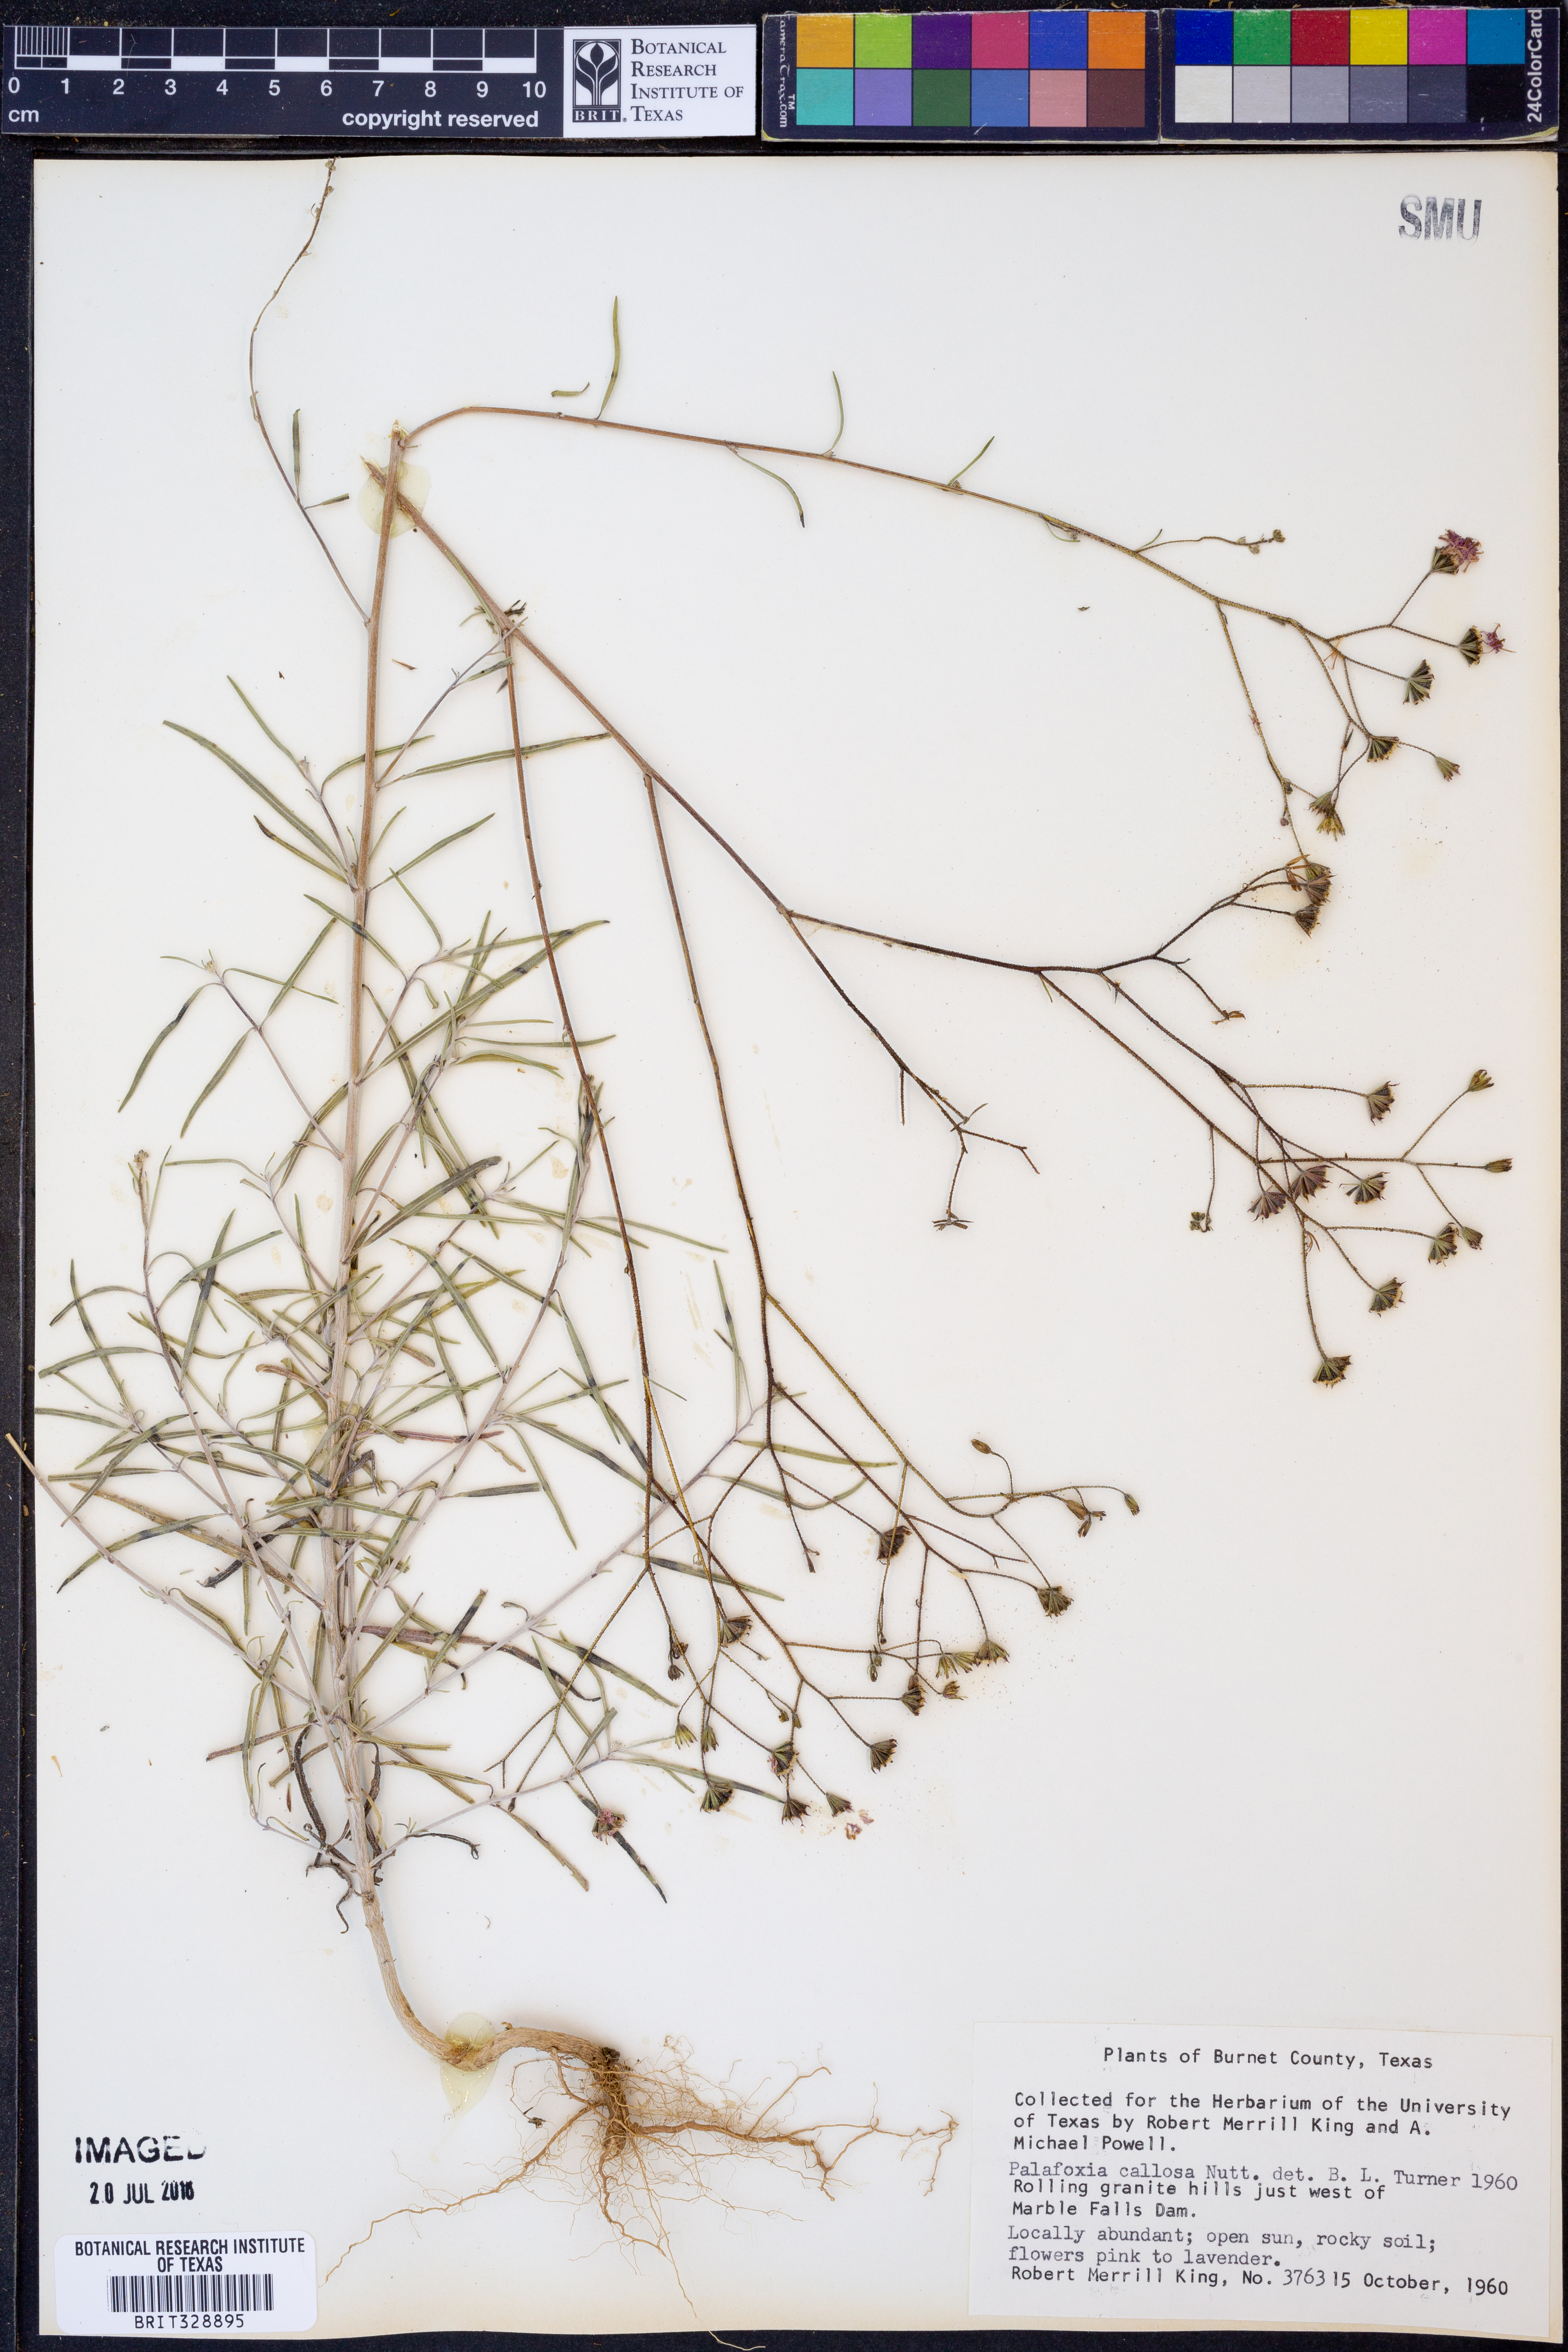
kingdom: Plantae
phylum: Tracheophyta
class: Magnoliopsida
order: Asterales
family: Asteraceae
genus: Palafoxia
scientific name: Palafoxia callosa
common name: Small palafox
